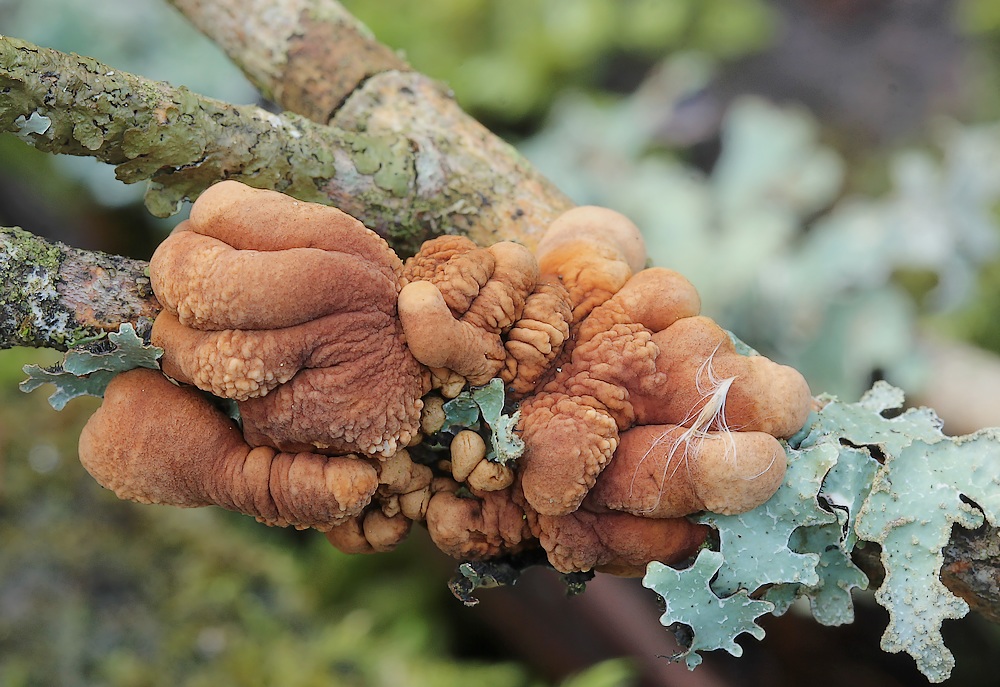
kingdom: Fungi
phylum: Ascomycota
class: Sordariomycetes
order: Hypocreales
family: Hypocreaceae
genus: Hypocreopsis
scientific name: Hypocreopsis lichenoides
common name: pilfinger
